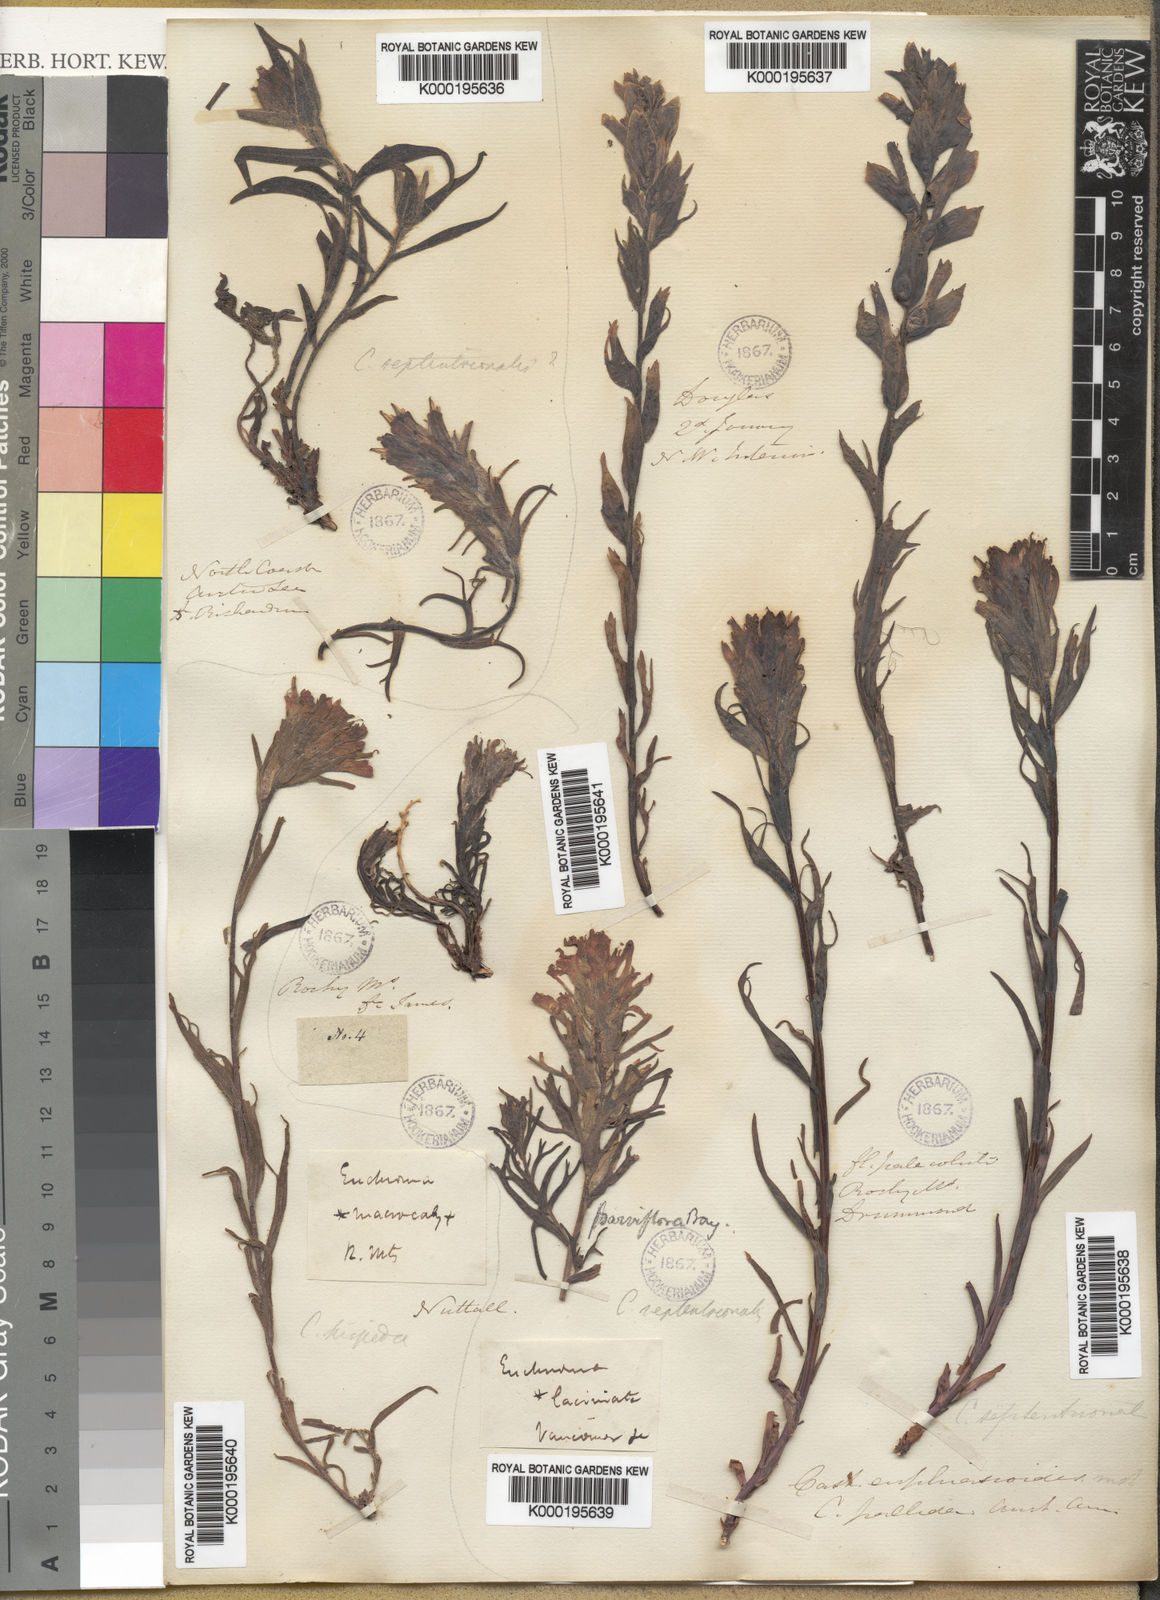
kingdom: Plantae
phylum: Tracheophyta
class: Magnoliopsida
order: Lamiales
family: Orobanchaceae
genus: Castilleja
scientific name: Castilleja hispida
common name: Bristly paintbrush
